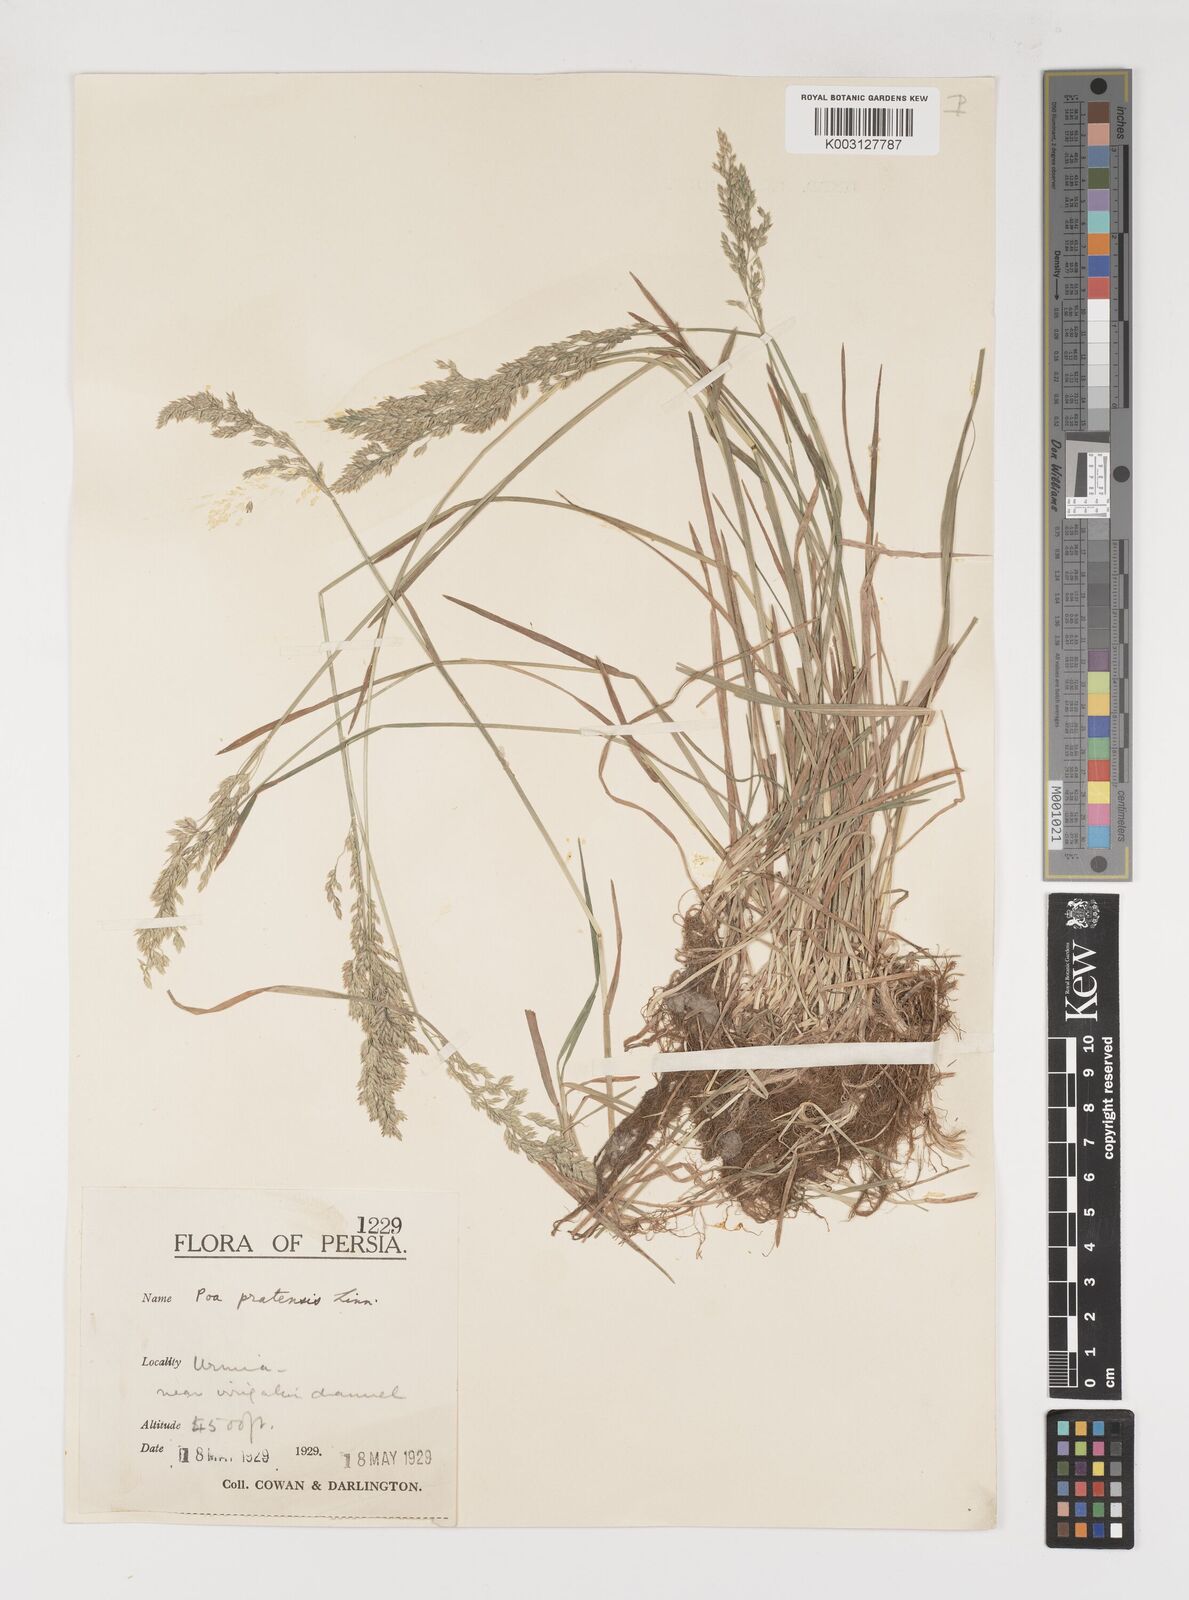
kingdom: Plantae
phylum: Tracheophyta
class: Liliopsida
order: Poales
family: Poaceae
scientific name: Poaceae
